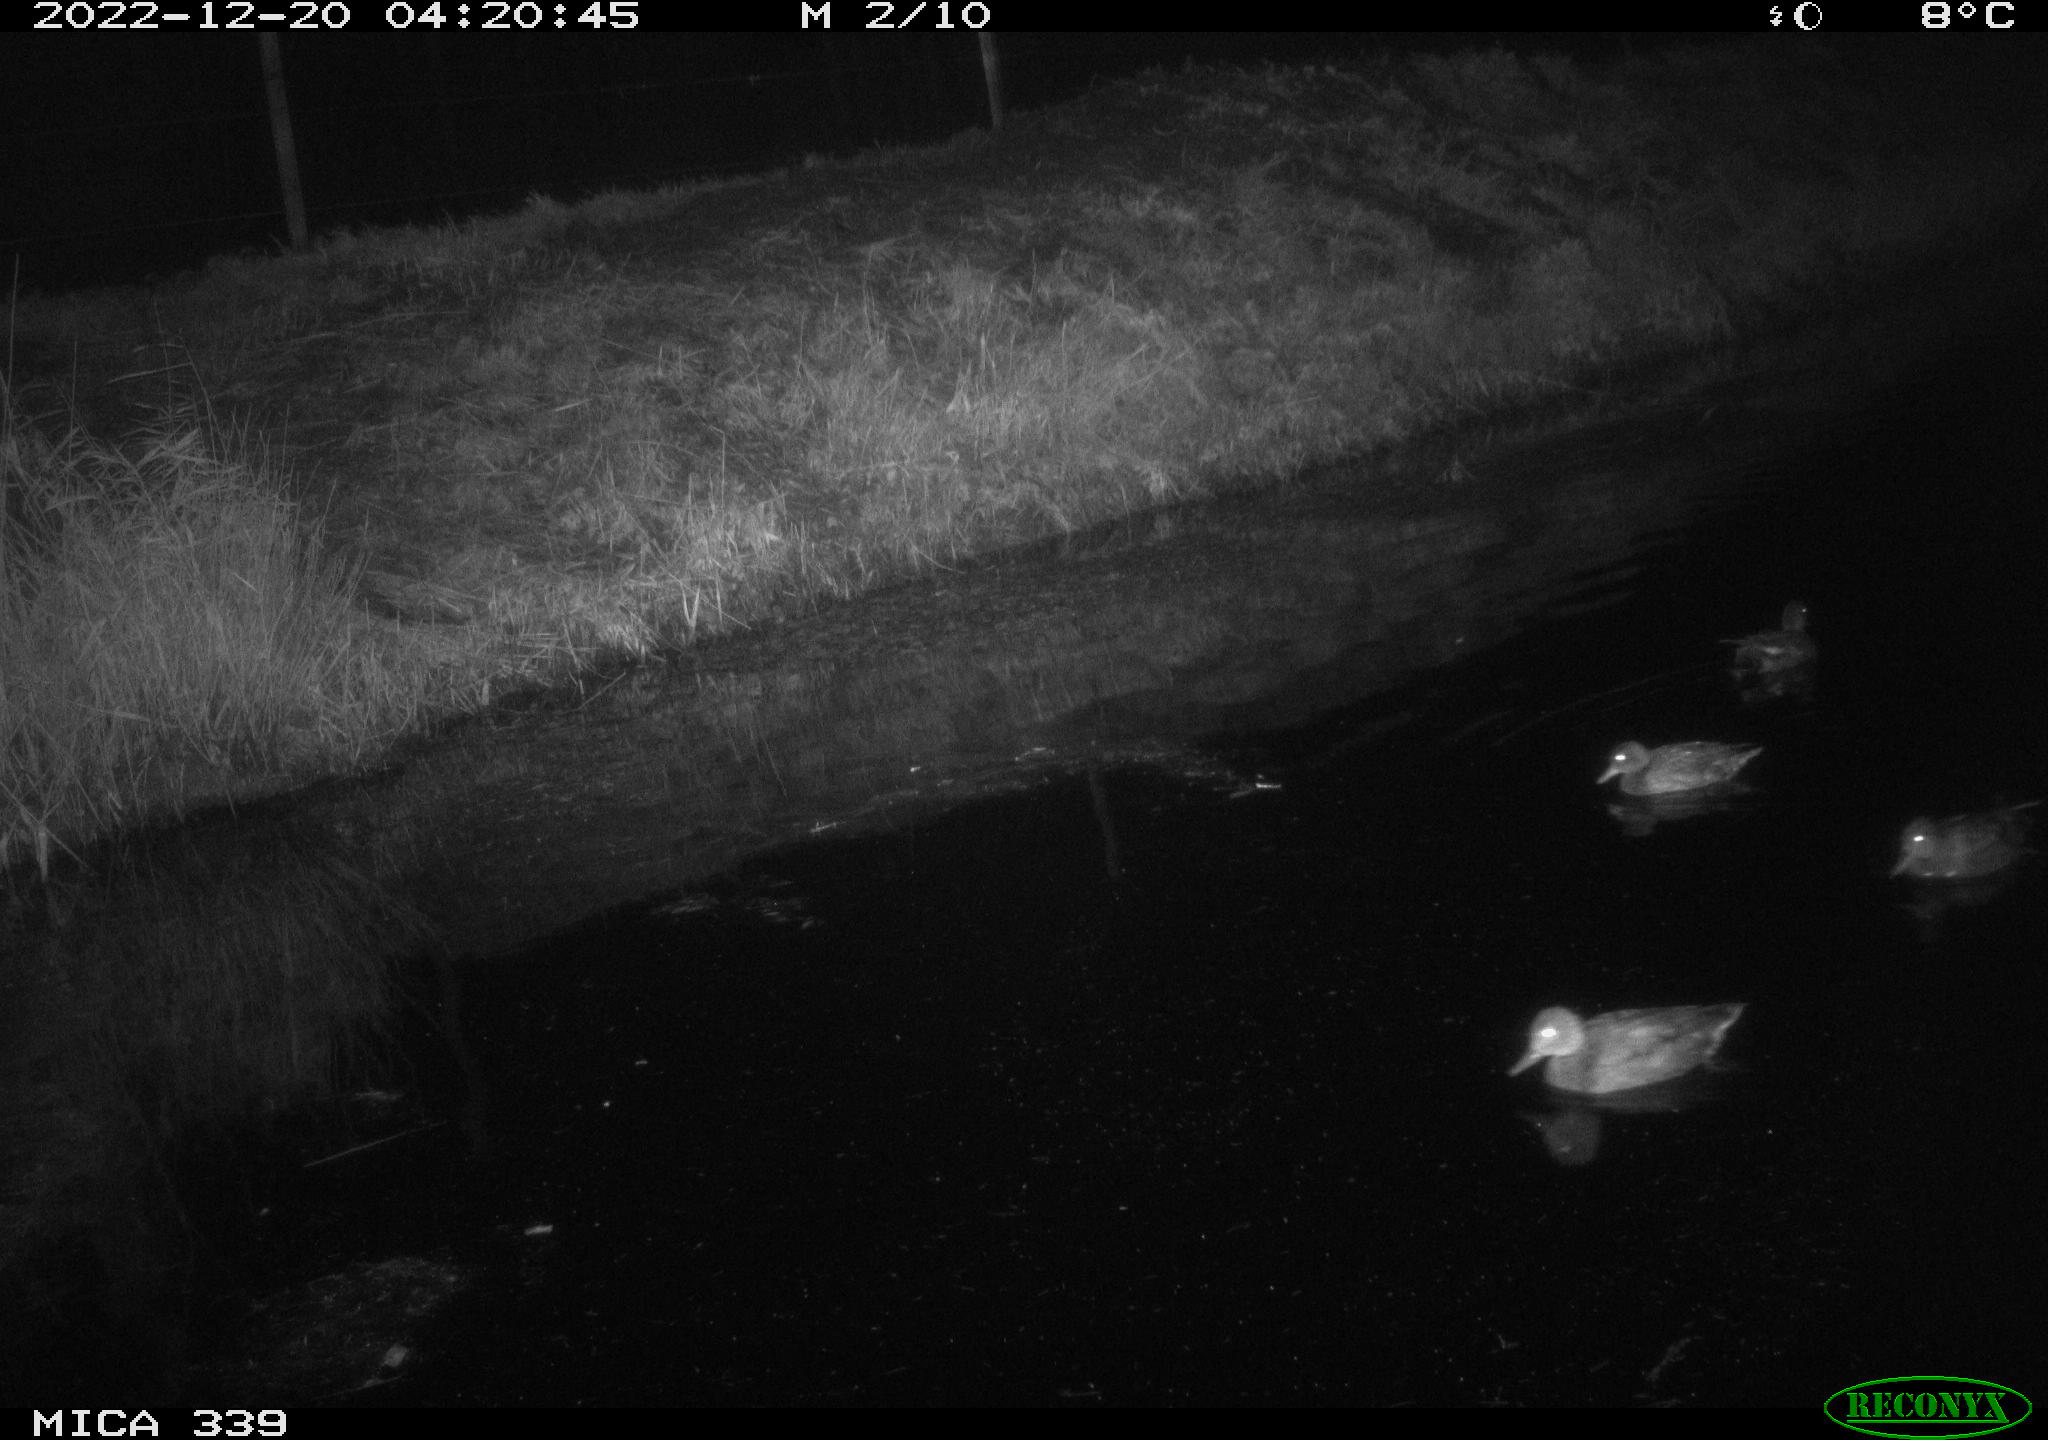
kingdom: Animalia
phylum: Chordata
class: Aves
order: Anseriformes
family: Anatidae
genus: Anas
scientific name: Anas
